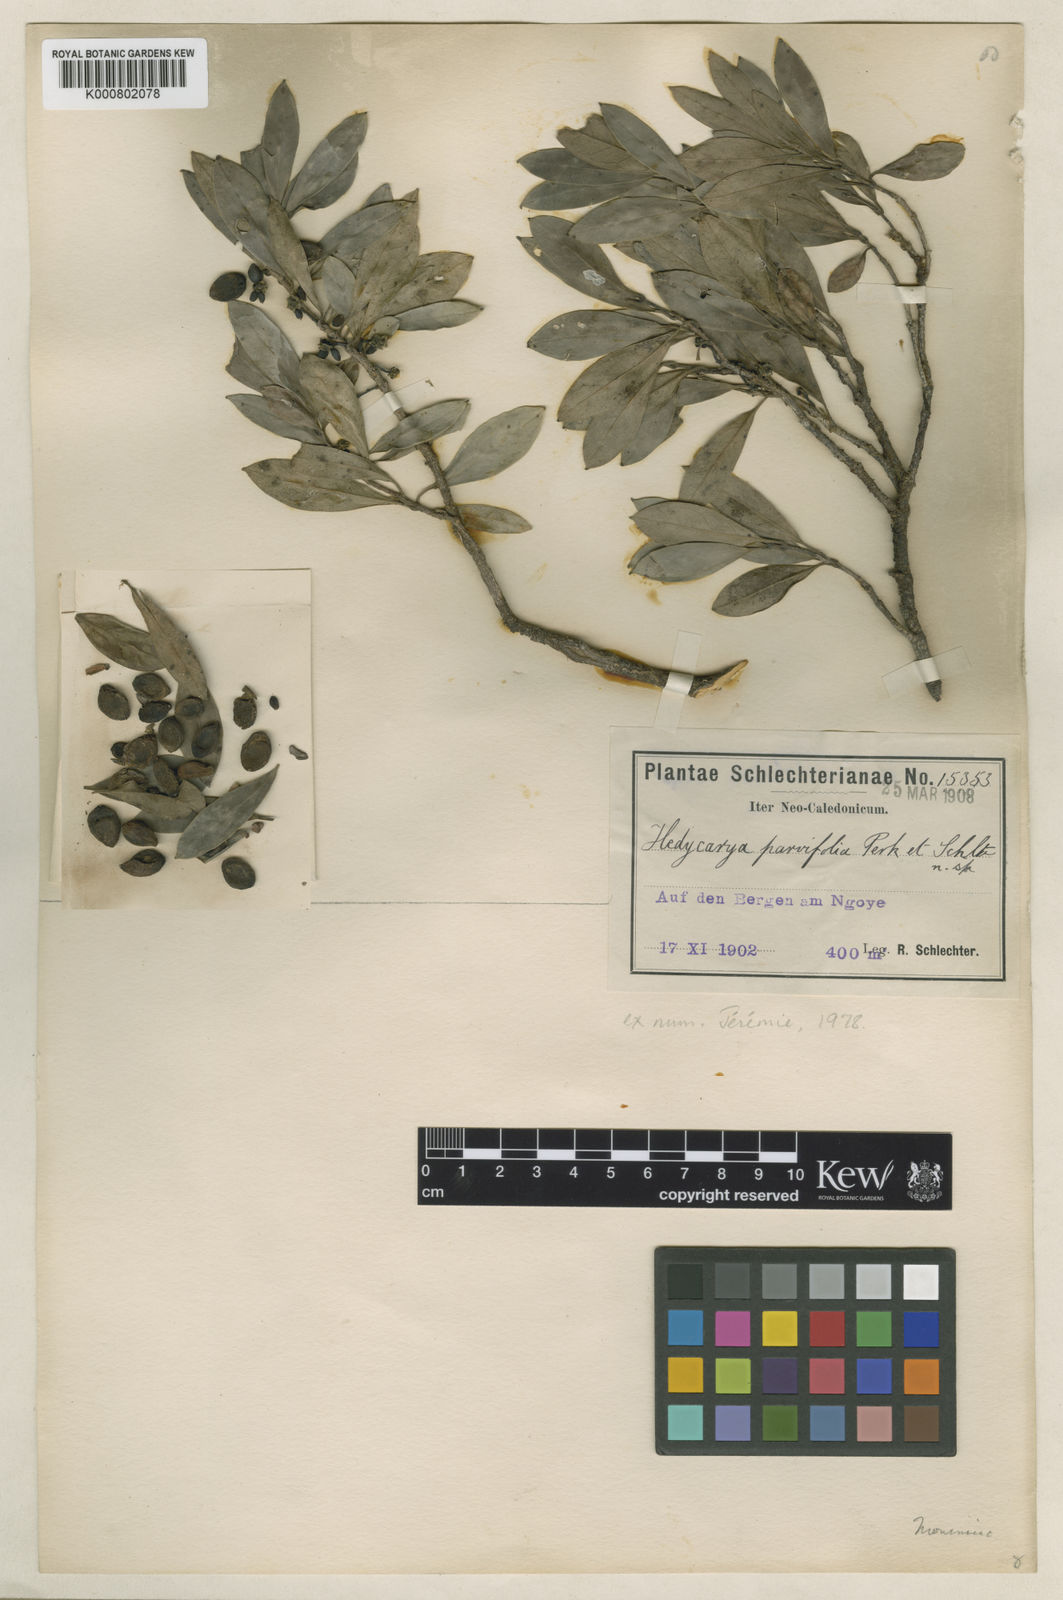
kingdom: Plantae
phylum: Tracheophyta
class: Magnoliopsida
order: Laurales
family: Monimiaceae
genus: Hedycarya
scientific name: Hedycarya parvifolia
